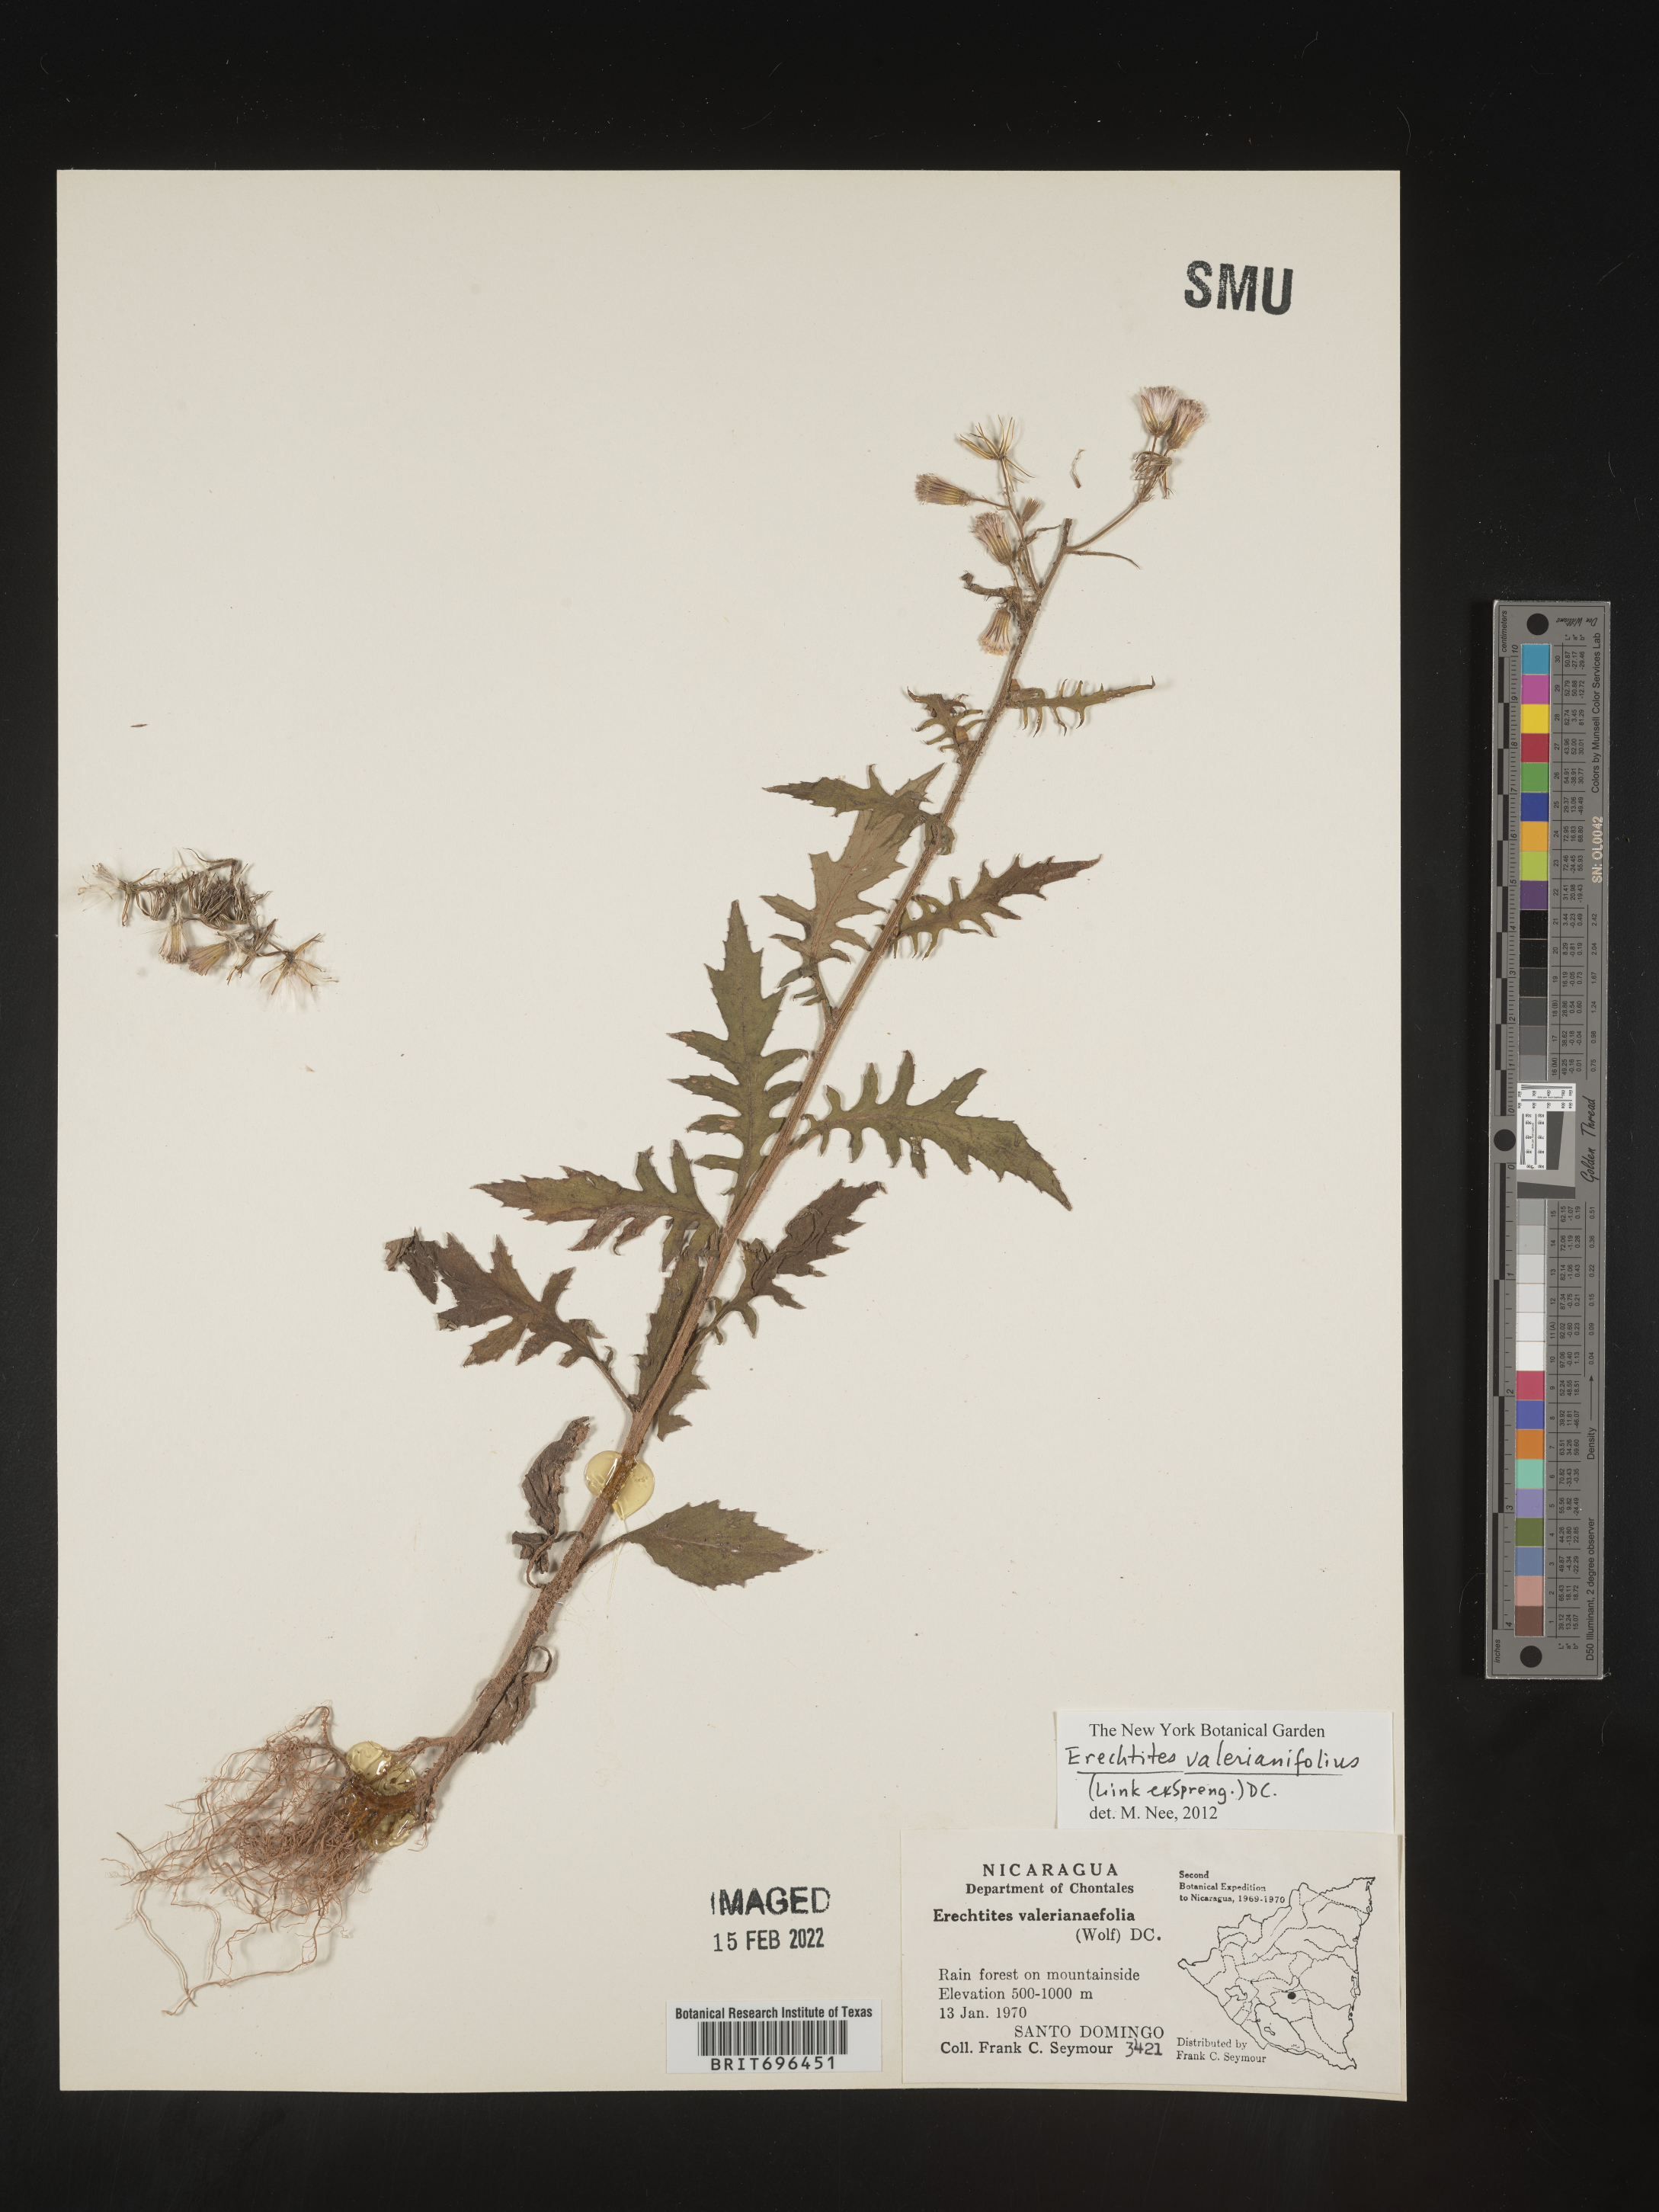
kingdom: Plantae
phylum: Tracheophyta
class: Magnoliopsida
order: Asterales
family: Asteraceae
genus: Erechtites
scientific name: Erechtites
